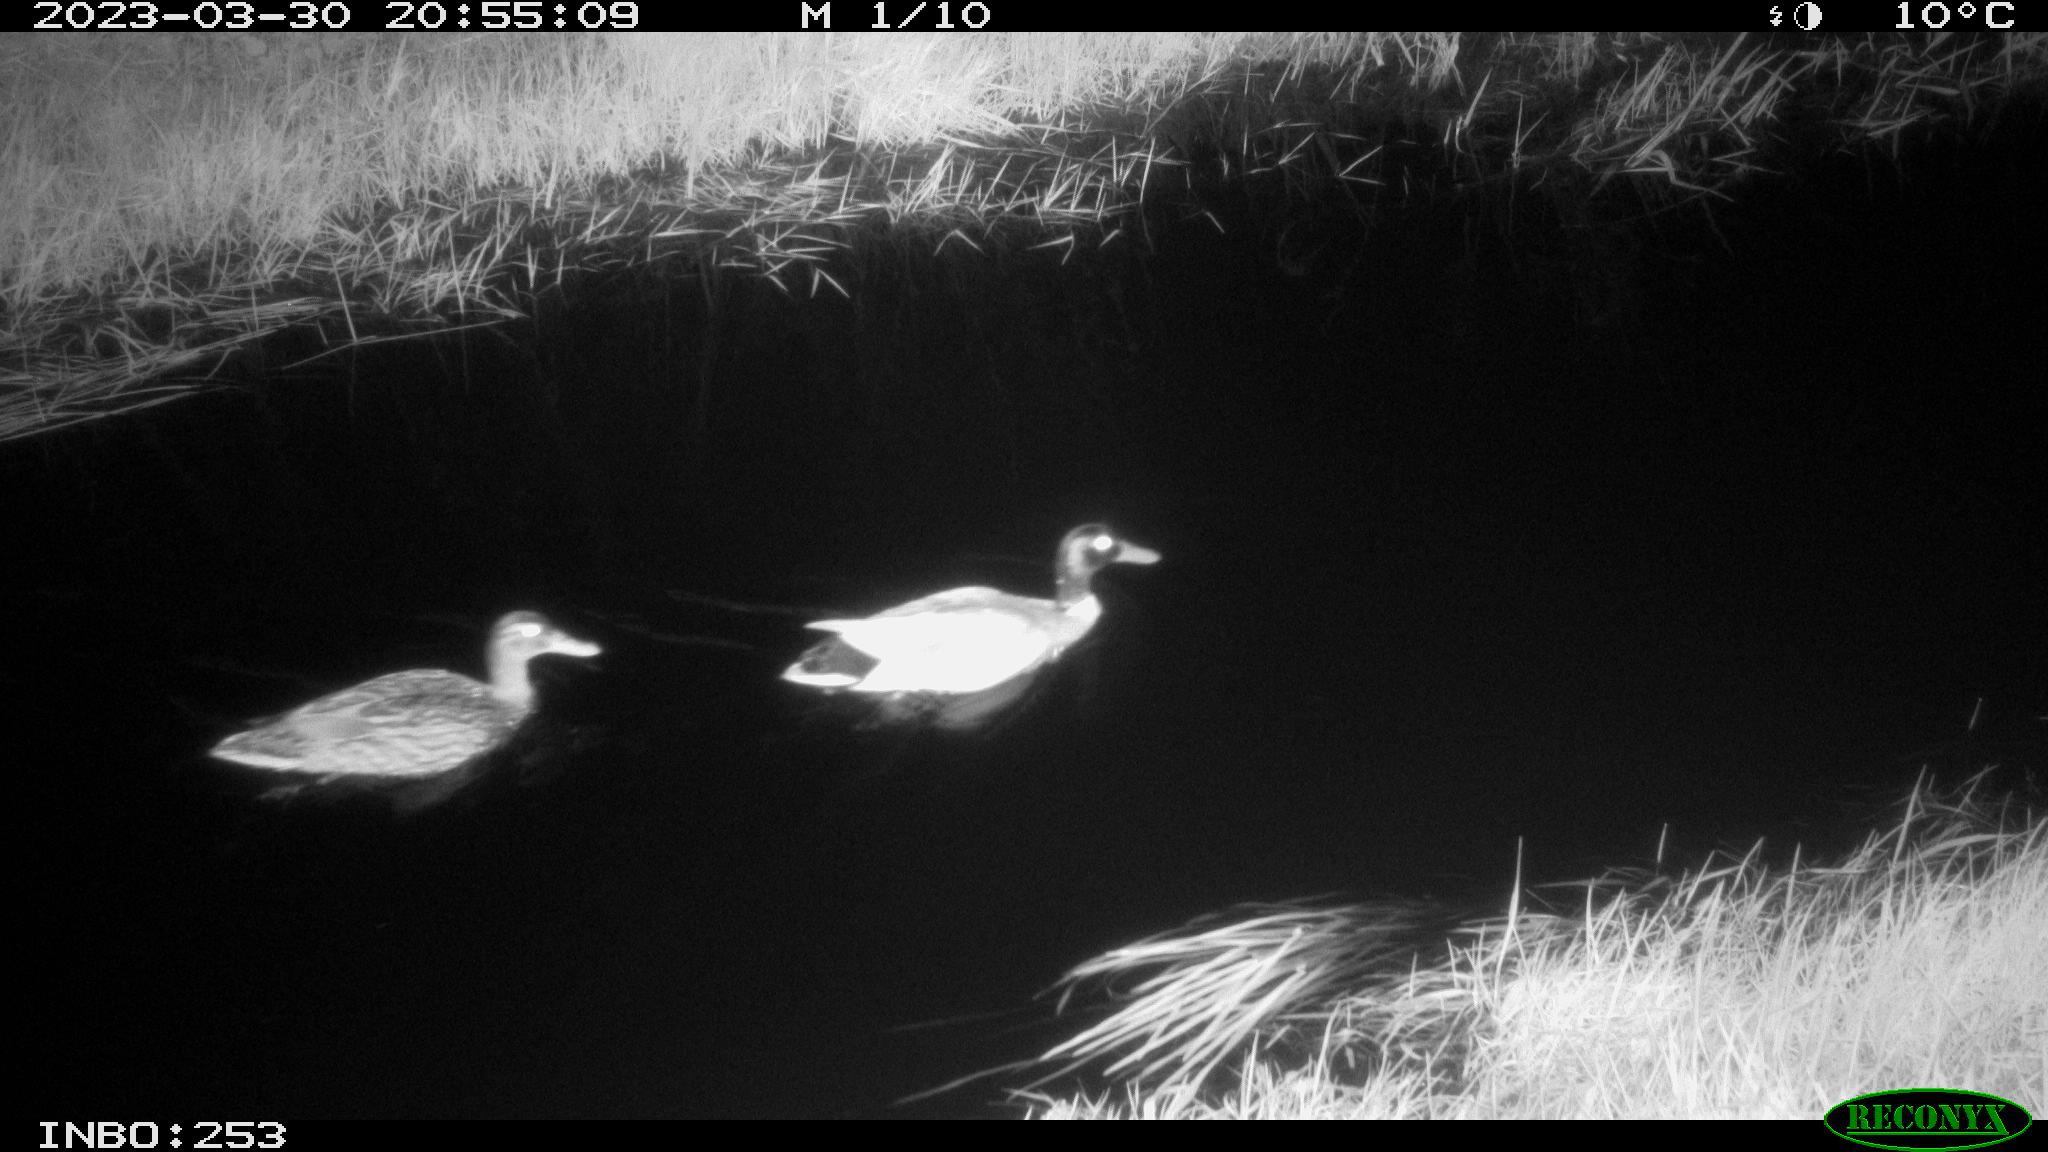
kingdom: Animalia
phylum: Chordata
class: Aves
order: Anseriformes
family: Anatidae
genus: Anas
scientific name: Anas
